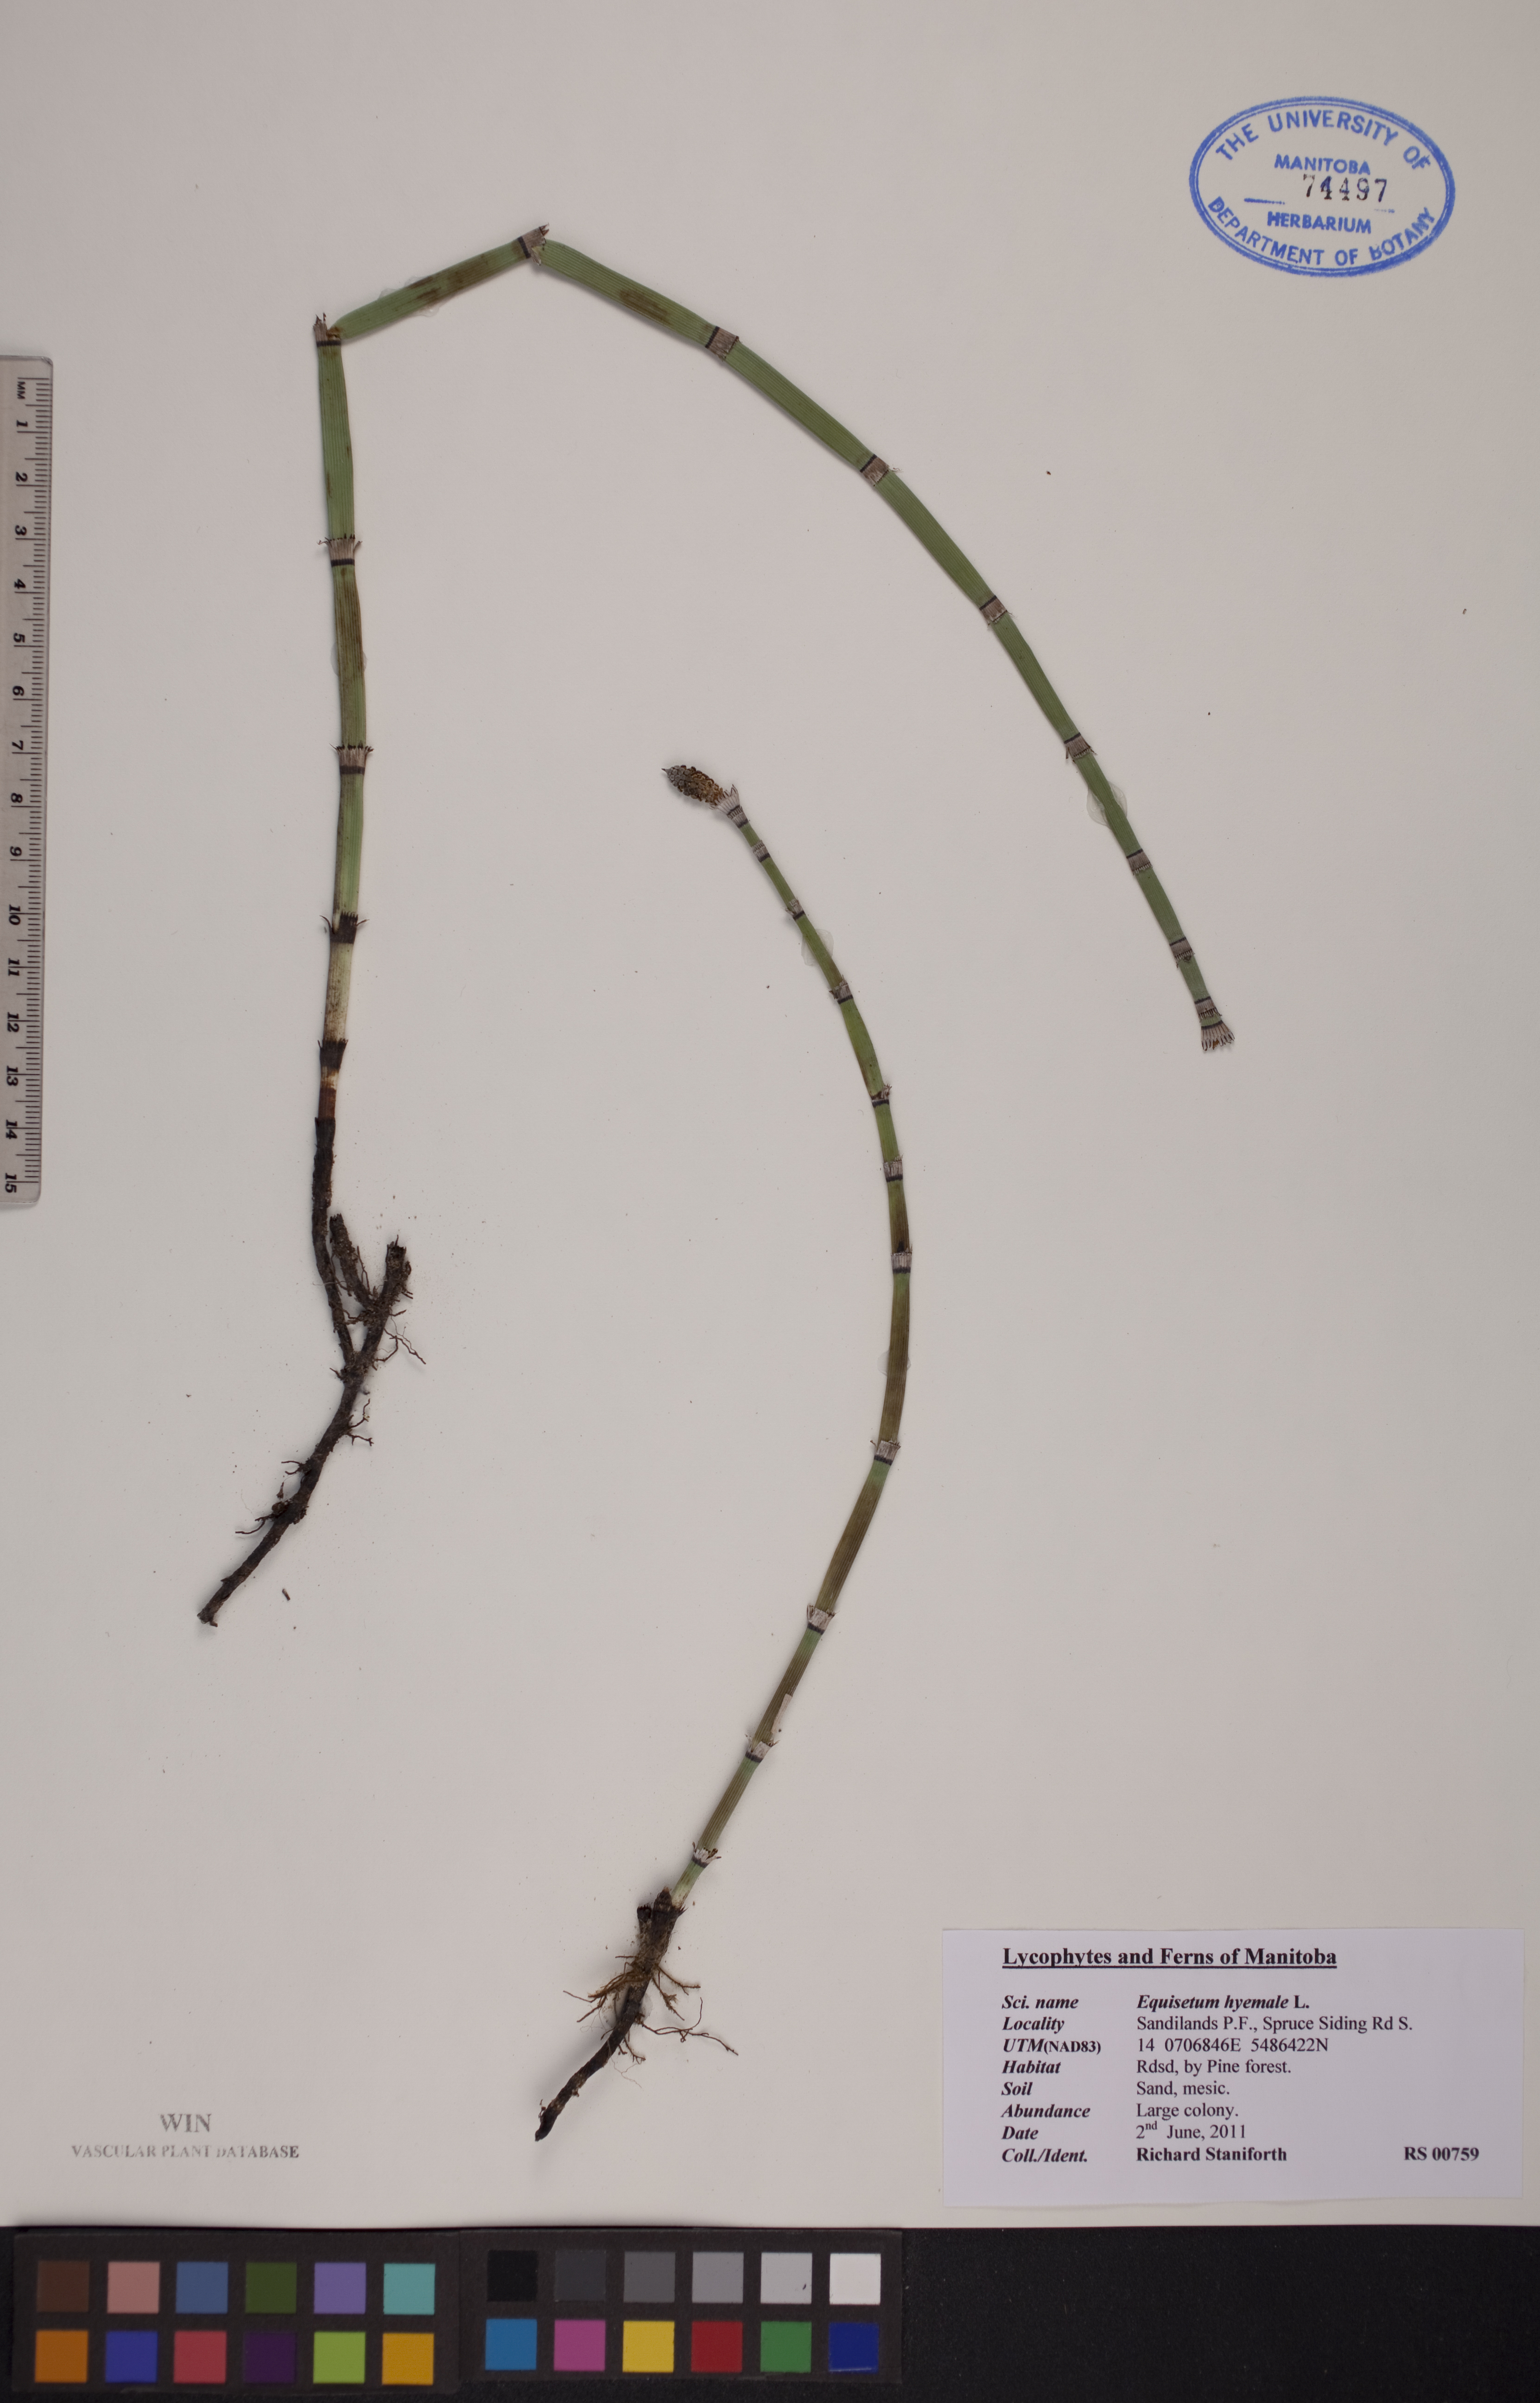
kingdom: Plantae
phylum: Tracheophyta
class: Polypodiopsida
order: Equisetales
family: Equisetaceae
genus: Equisetum
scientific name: Equisetum hyemale
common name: Rough horsetail
